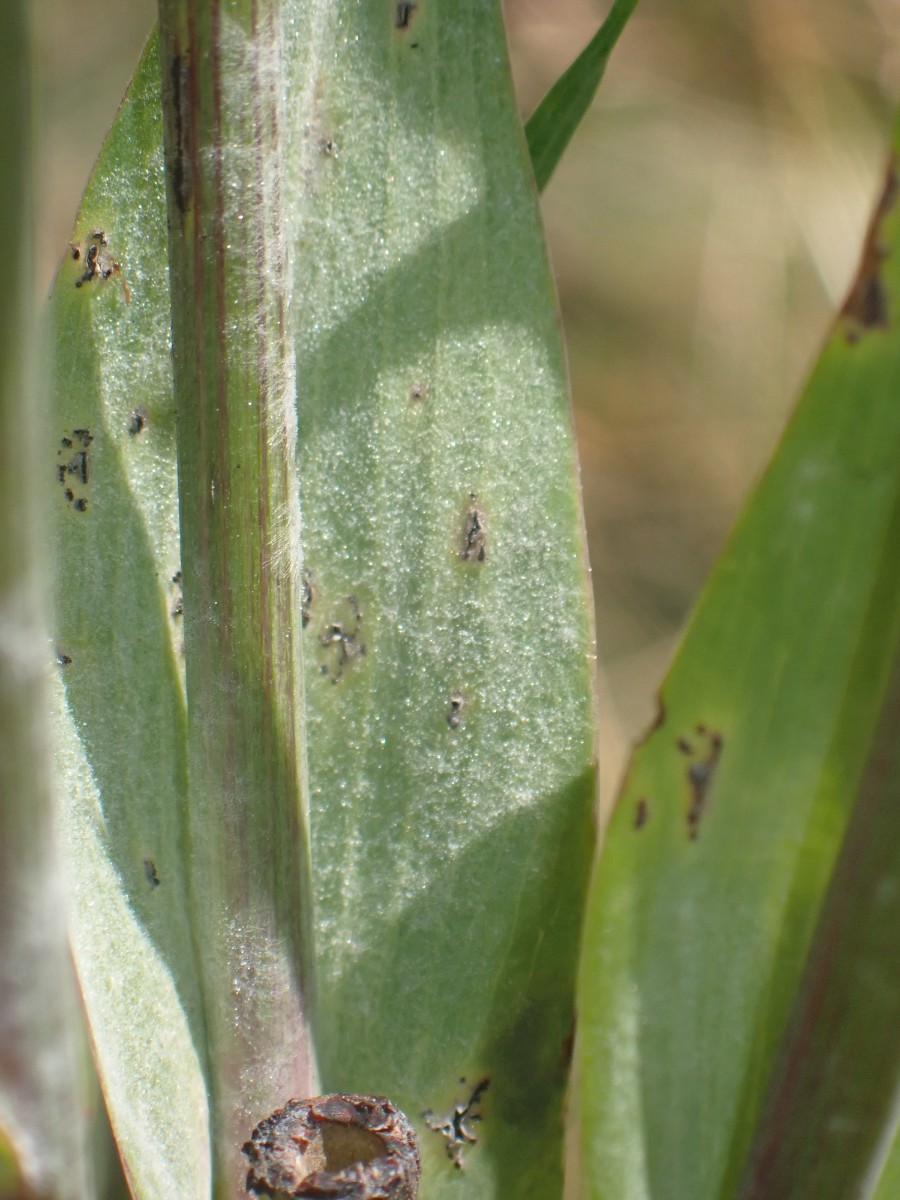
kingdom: Fungi
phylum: Ascomycota
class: Leotiomycetes
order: Helotiales
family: Erysiphaceae
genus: Golovinomyces
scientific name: Golovinomyces cichoracearum
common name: kurvblomst-meldug
